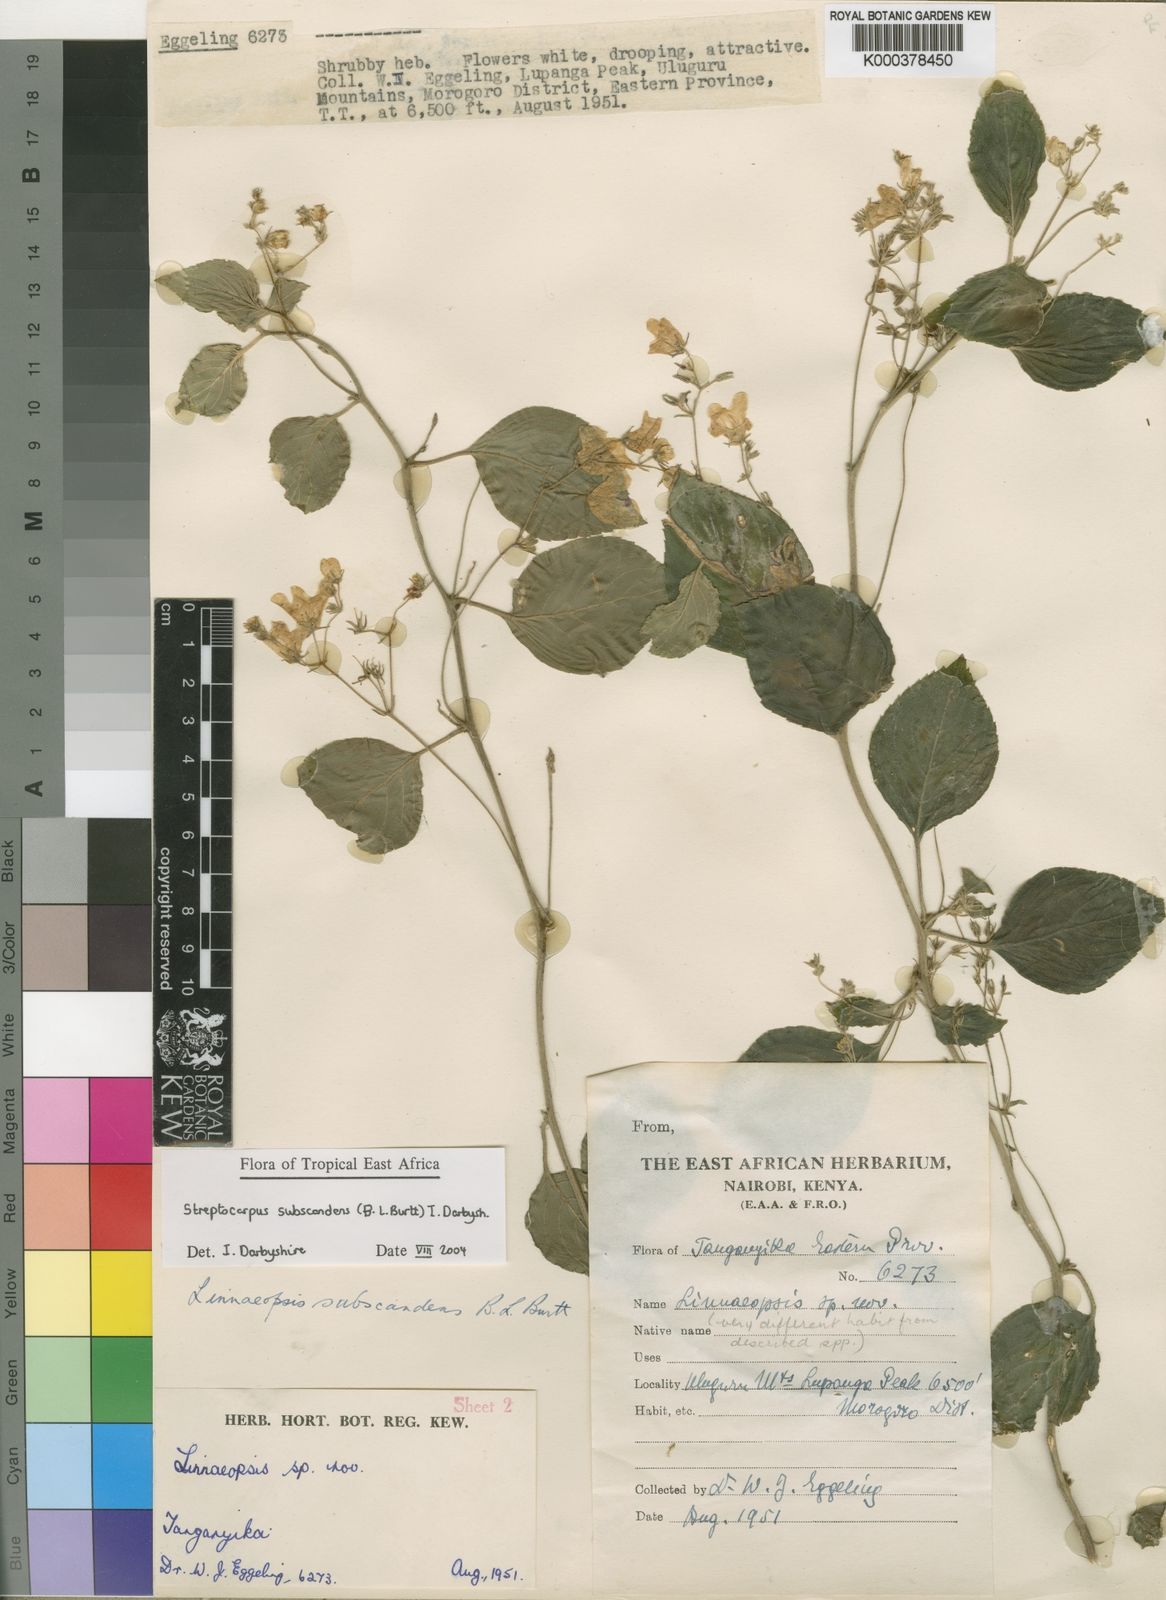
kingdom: Plantae
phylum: Tracheophyta
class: Magnoliopsida
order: Lamiales
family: Gesneriaceae
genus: Streptocarpus
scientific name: Streptocarpus
